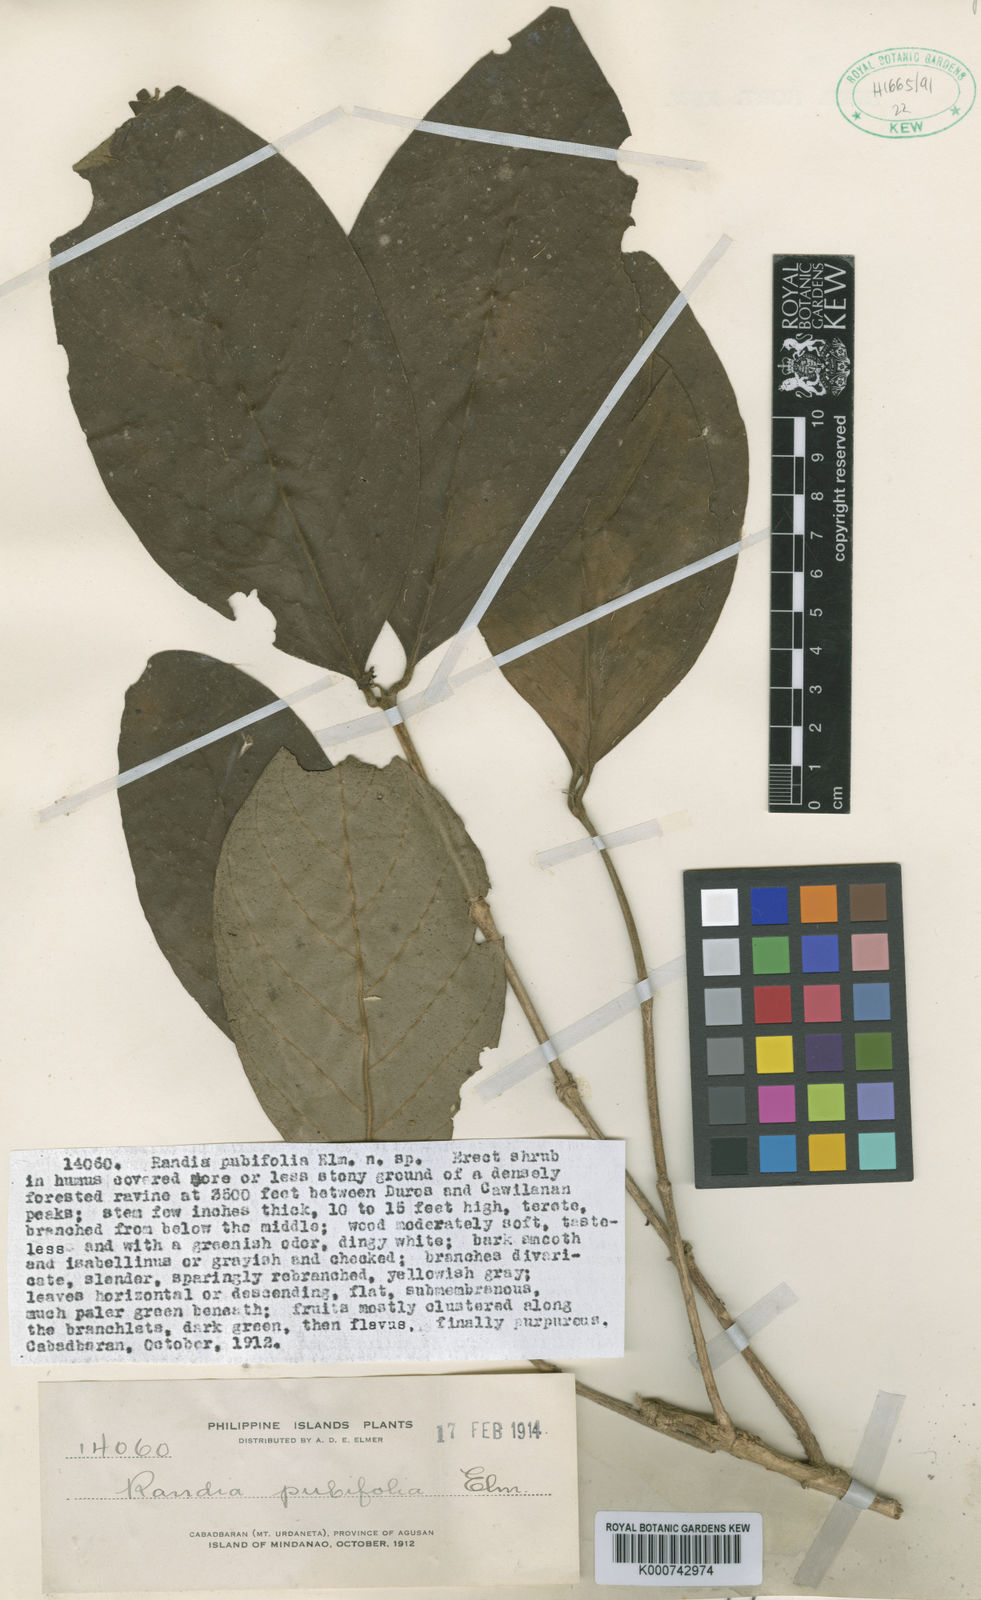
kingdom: Plantae
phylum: Tracheophyta
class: Magnoliopsida
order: Gentianales
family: Rubiaceae
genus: Randia
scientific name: Randia pubifolia
